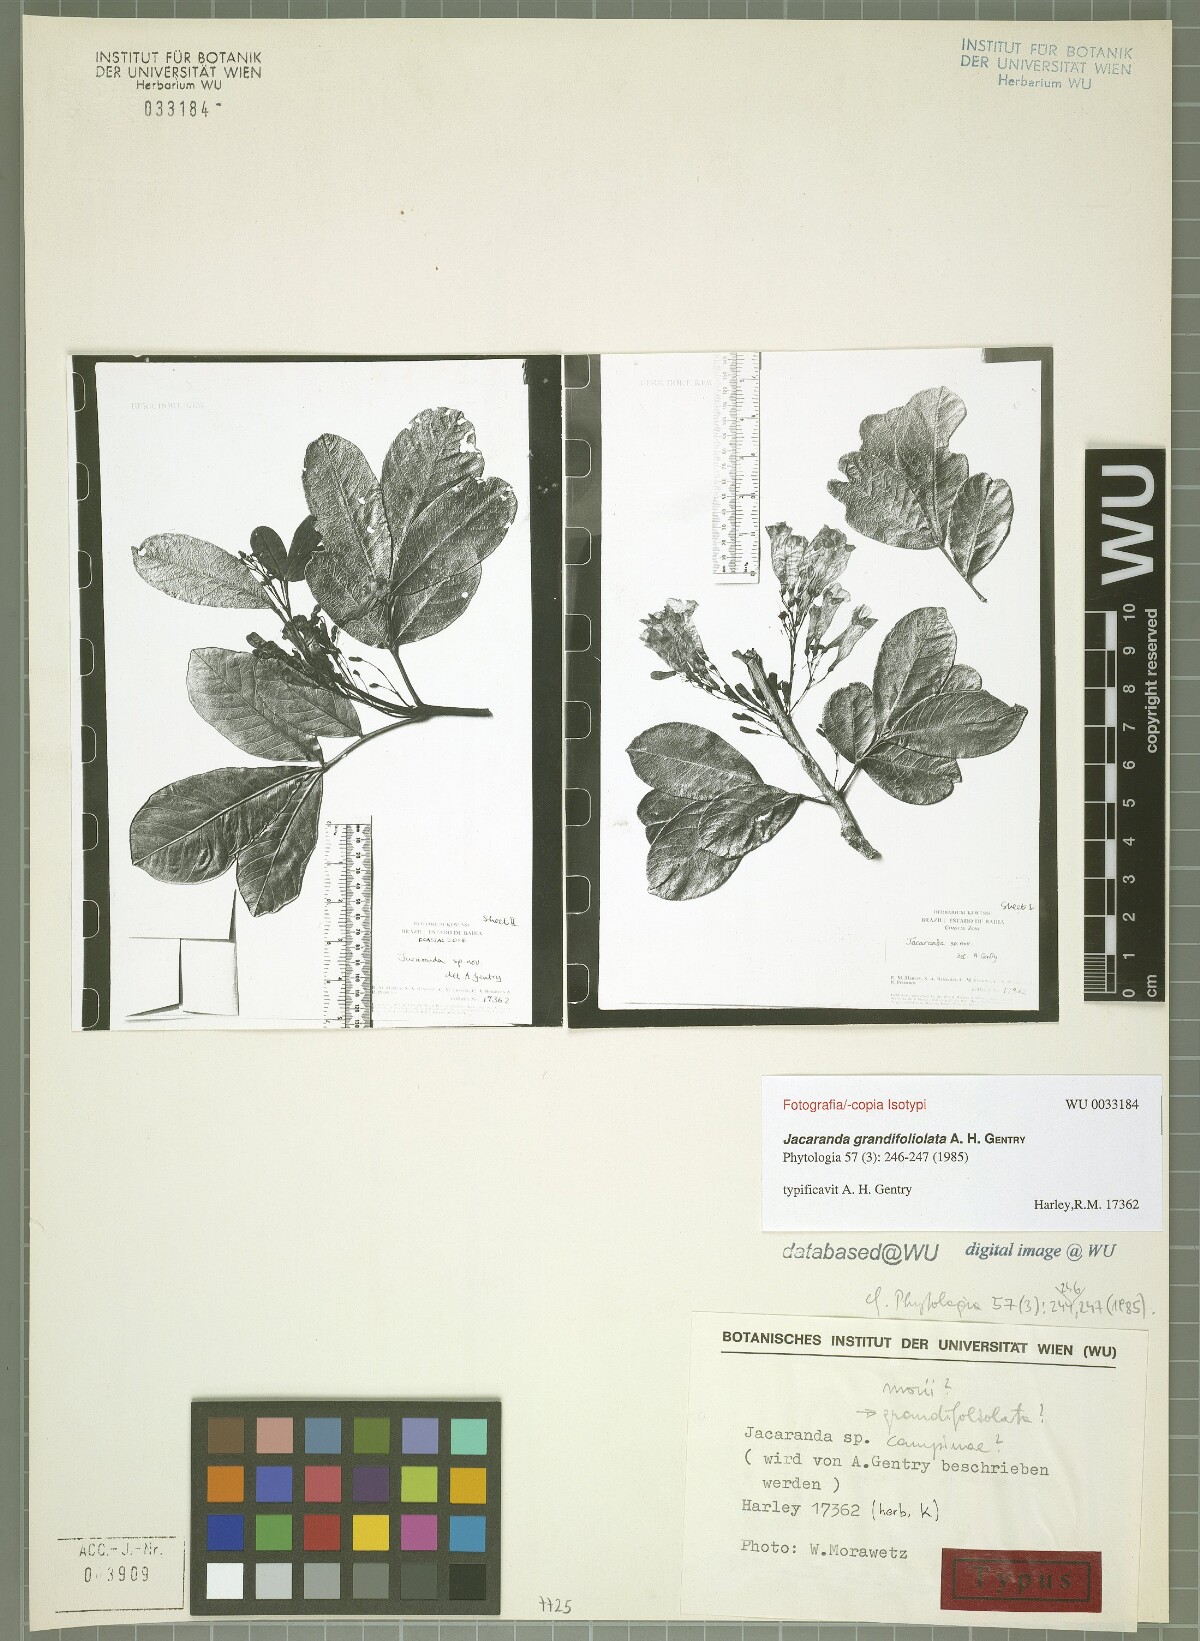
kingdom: Plantae
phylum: Tracheophyta
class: Magnoliopsida
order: Lamiales
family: Bignoniaceae
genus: Jacaranda
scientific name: Jacaranda grandifoliolata
